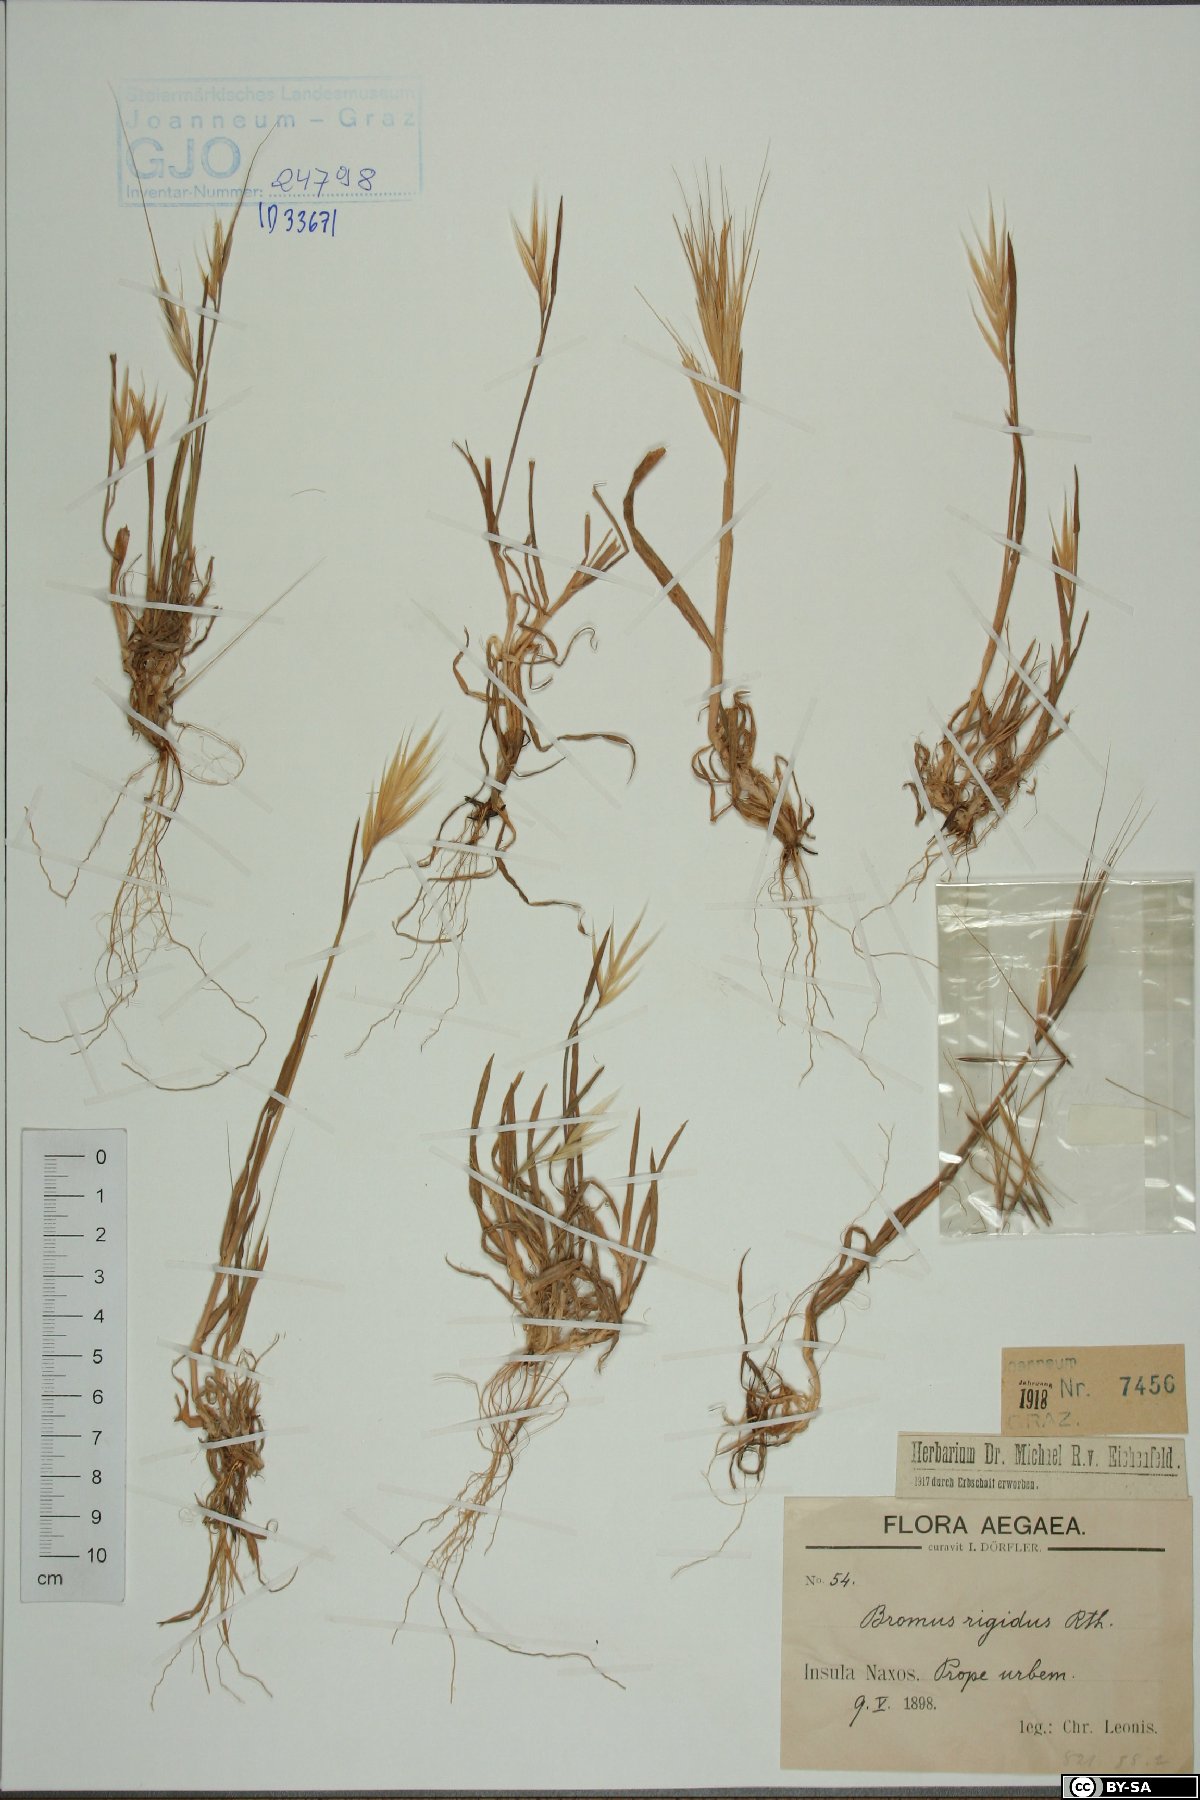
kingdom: Plantae
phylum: Tracheophyta
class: Liliopsida
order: Poales
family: Poaceae
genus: Bromus
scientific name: Bromus rigidus
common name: Ripgut brome
